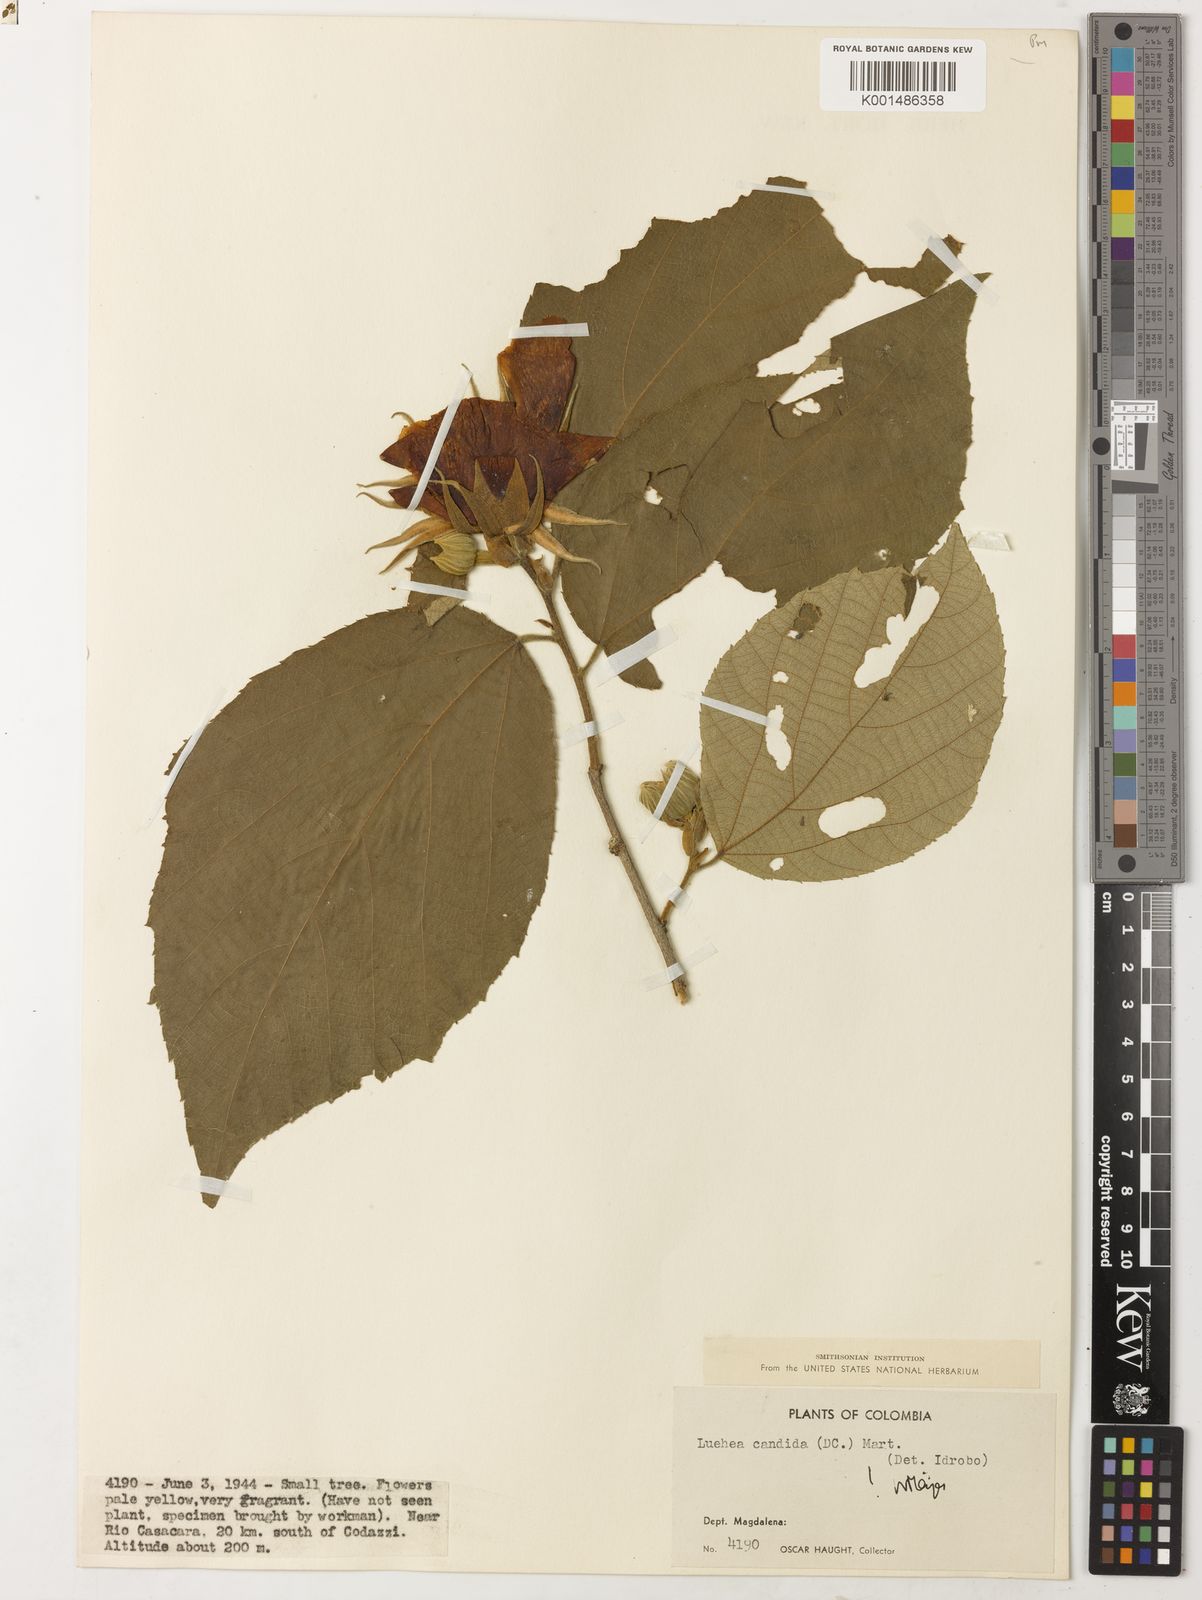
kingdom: Plantae
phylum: Tracheophyta
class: Magnoliopsida
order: Malvales
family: Malvaceae
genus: Luehea
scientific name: Luehea candida
